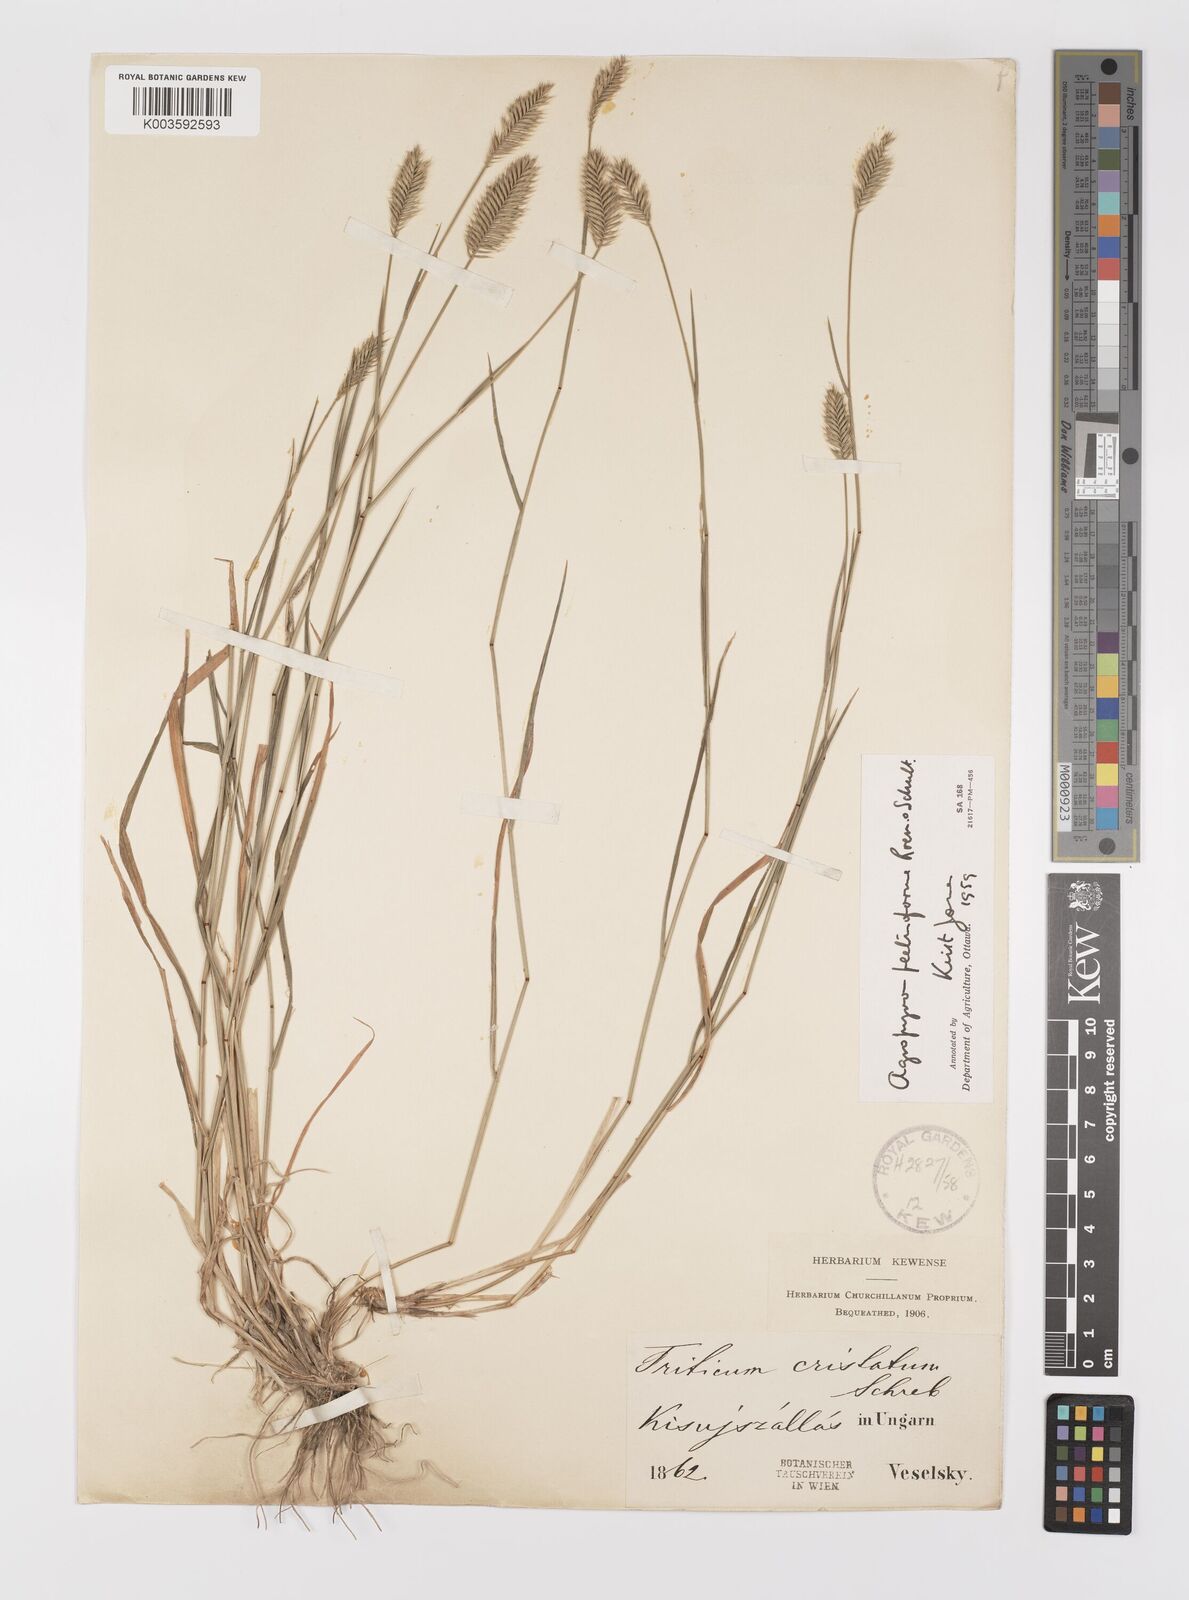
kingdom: Plantae
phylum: Tracheophyta
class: Liliopsida
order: Poales
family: Poaceae
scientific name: Poaceae
